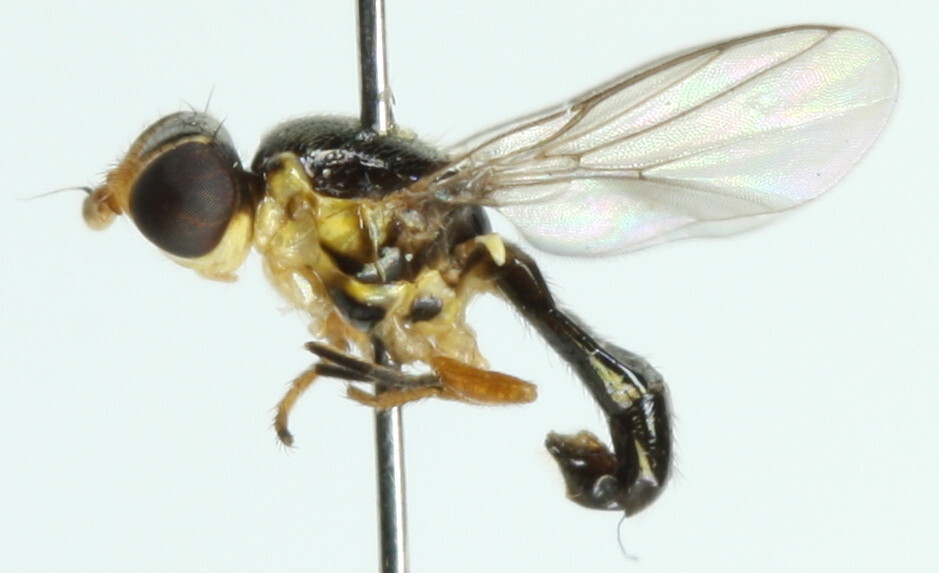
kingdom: Animalia
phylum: Arthropoda
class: Insecta
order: Diptera
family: Chloropidae
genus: Cetema
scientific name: Cetema elongatum
